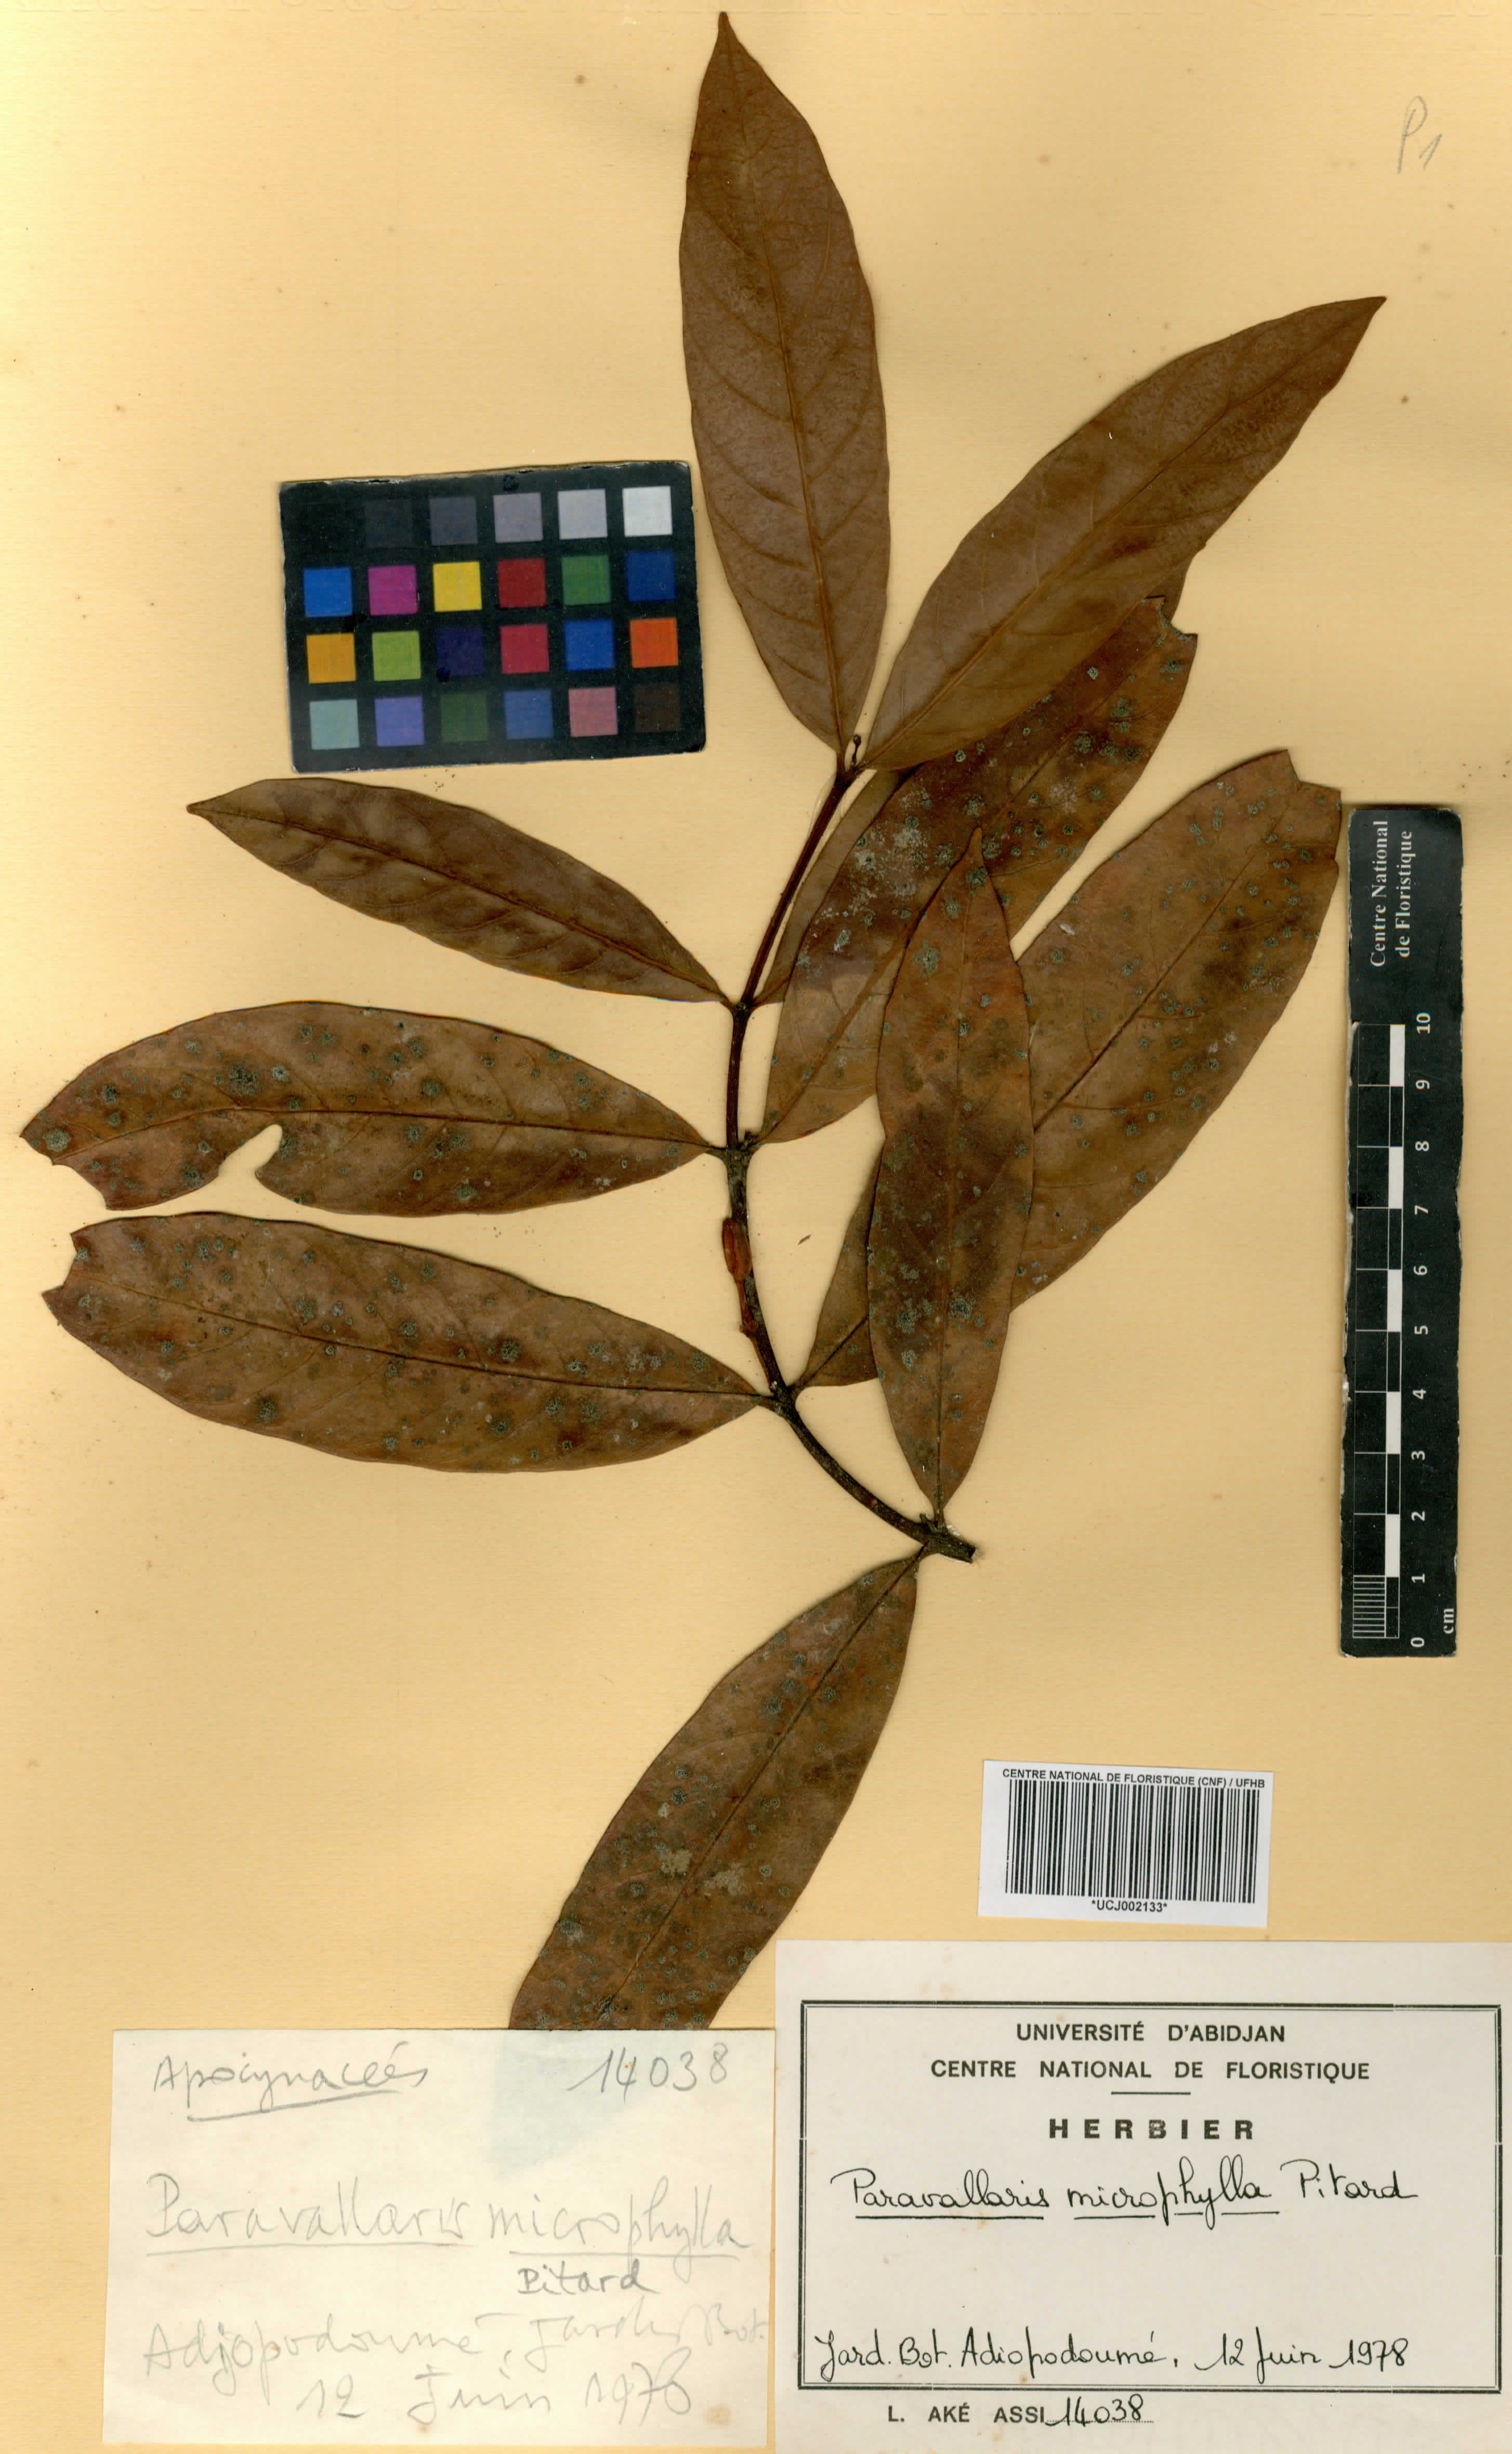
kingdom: Plantae
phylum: Tracheophyta
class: Magnoliopsida
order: Gentianales
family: Apocynaceae
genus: Kibatalia
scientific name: Kibatalia laurifolia
